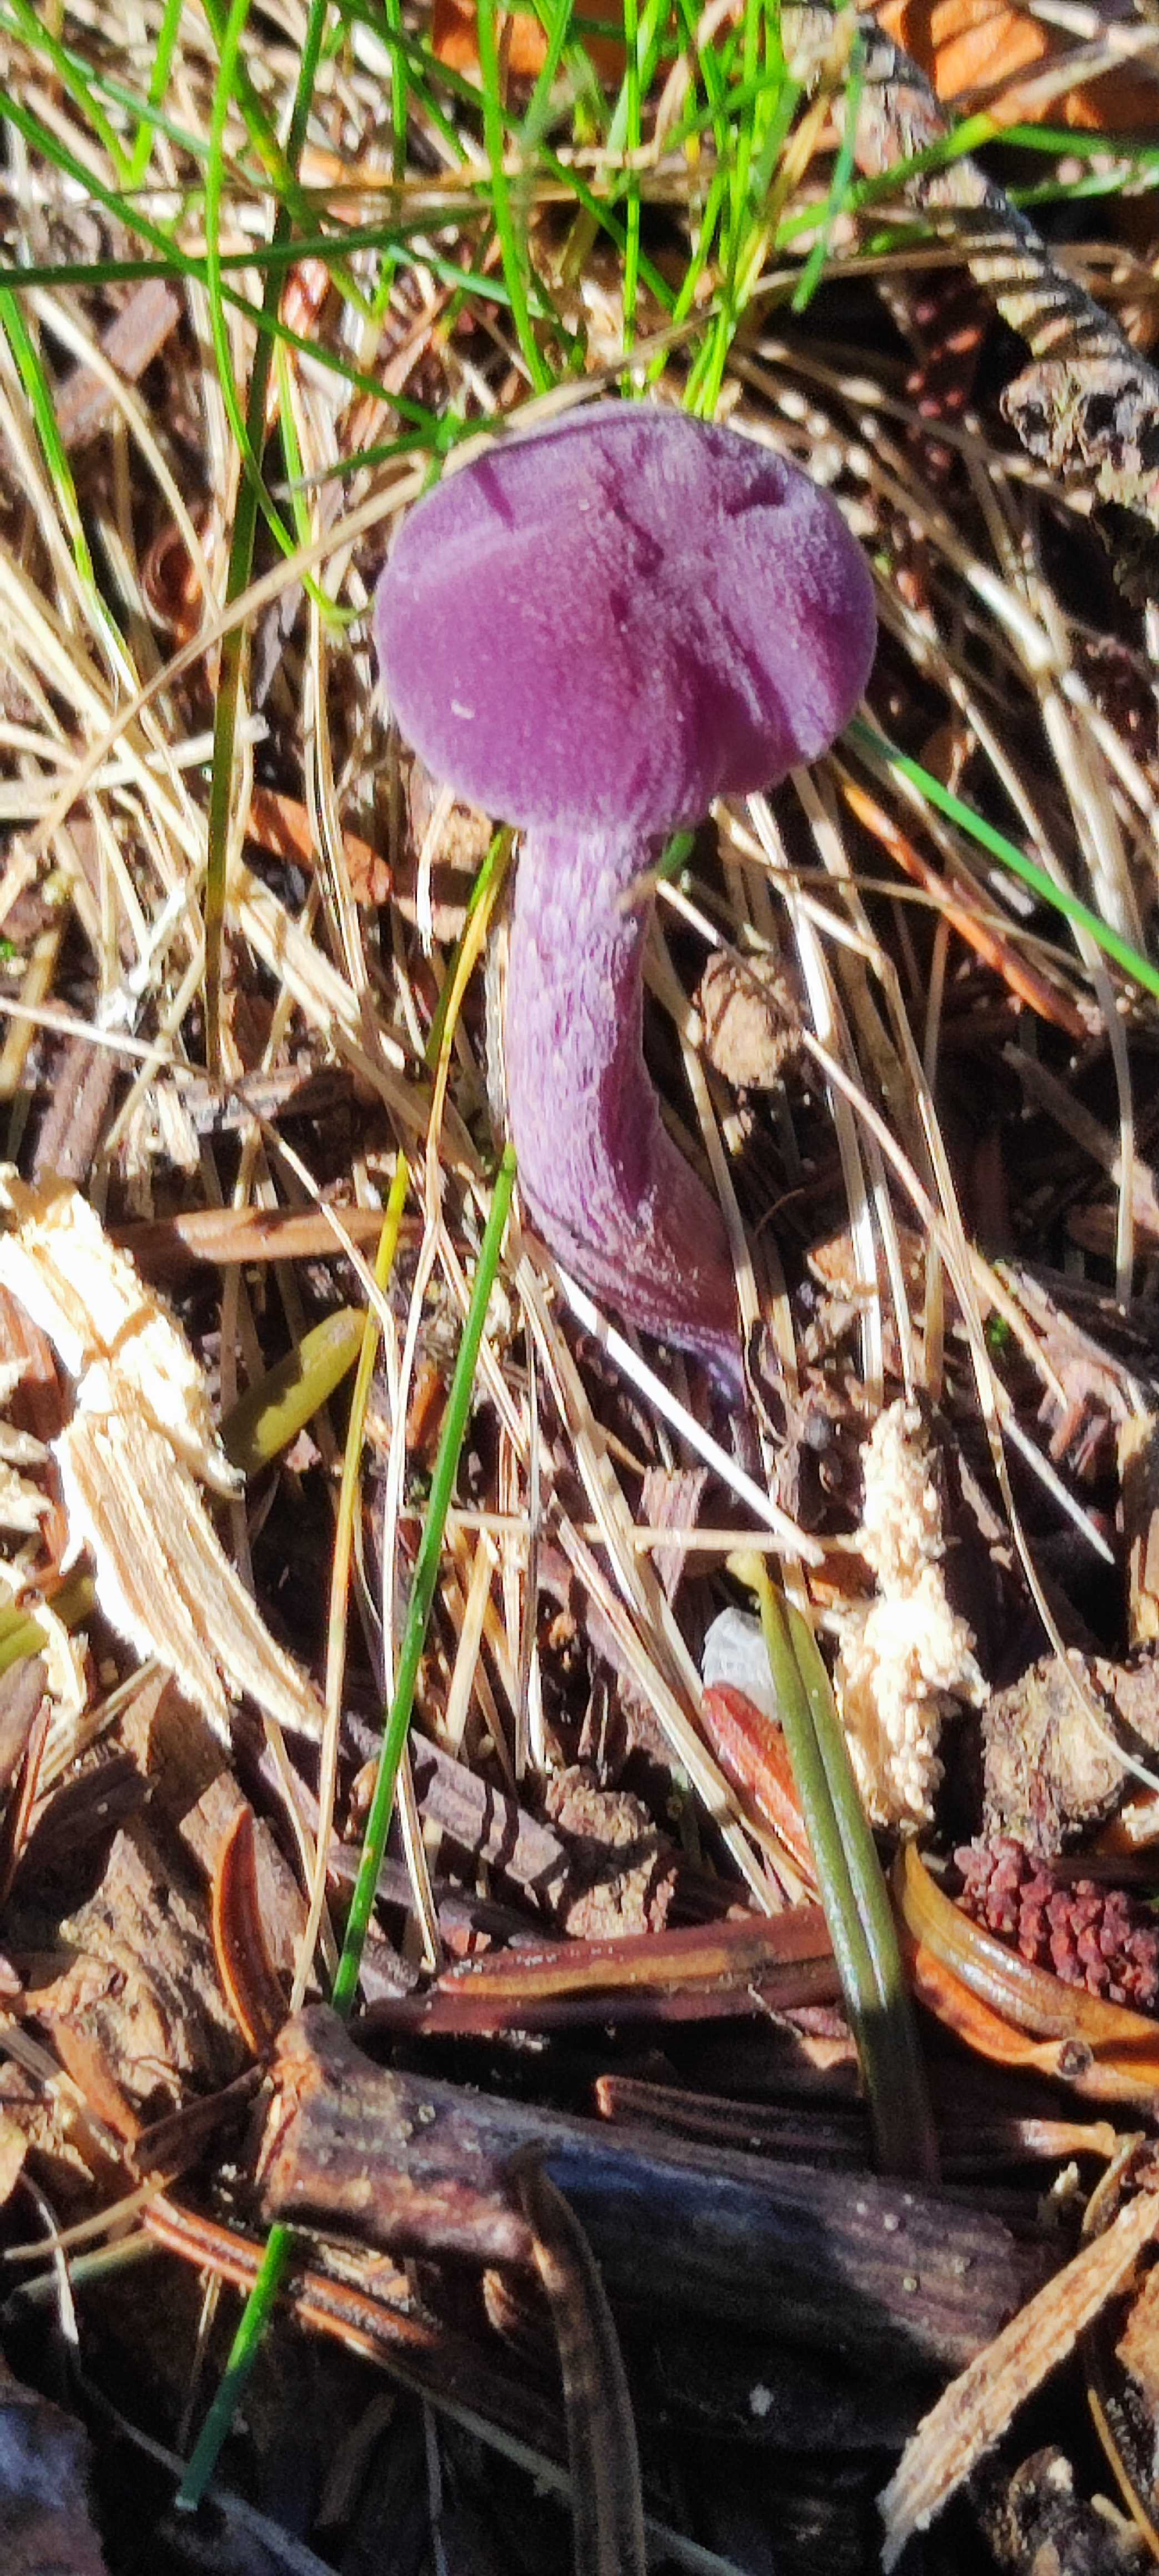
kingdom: Fungi
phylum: Basidiomycota
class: Agaricomycetes
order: Agaricales
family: Hydnangiaceae
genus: Laccaria
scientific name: Laccaria amethystina
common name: violet ametysthat
